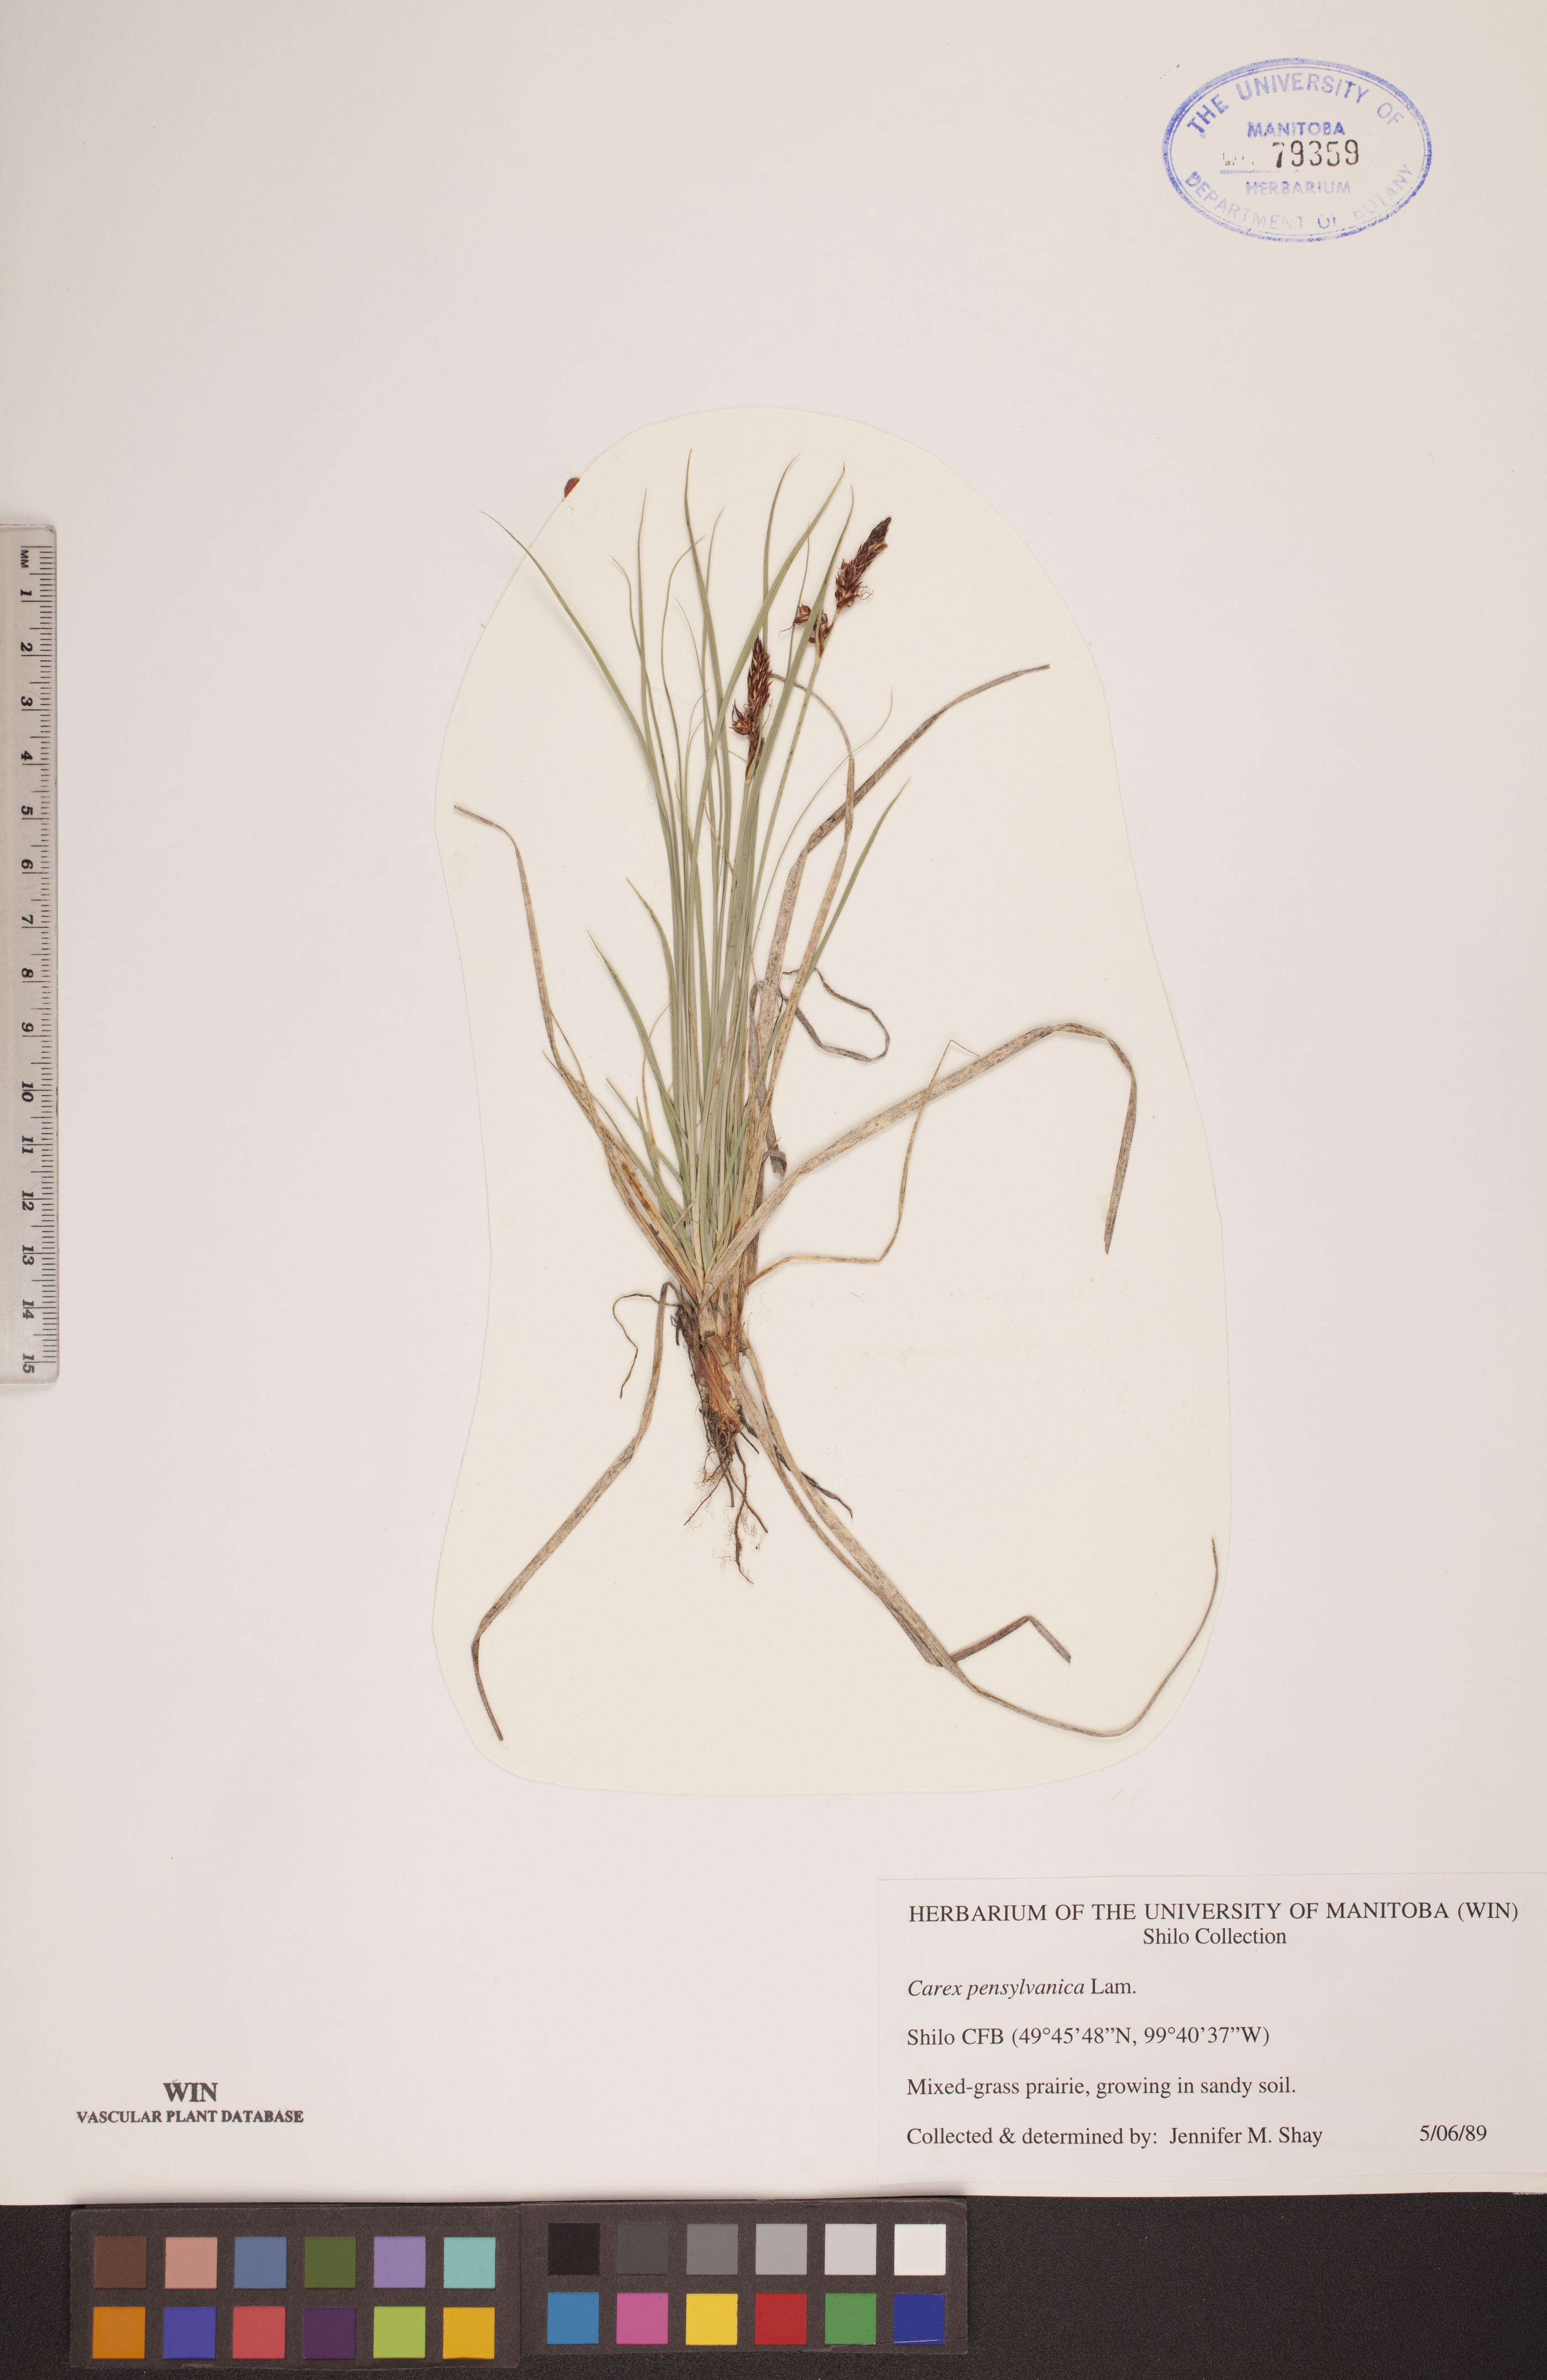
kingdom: Plantae
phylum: Tracheophyta
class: Liliopsida
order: Poales
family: Cyperaceae
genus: Carex
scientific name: Carex pensylvanica
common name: Common oak sedge
